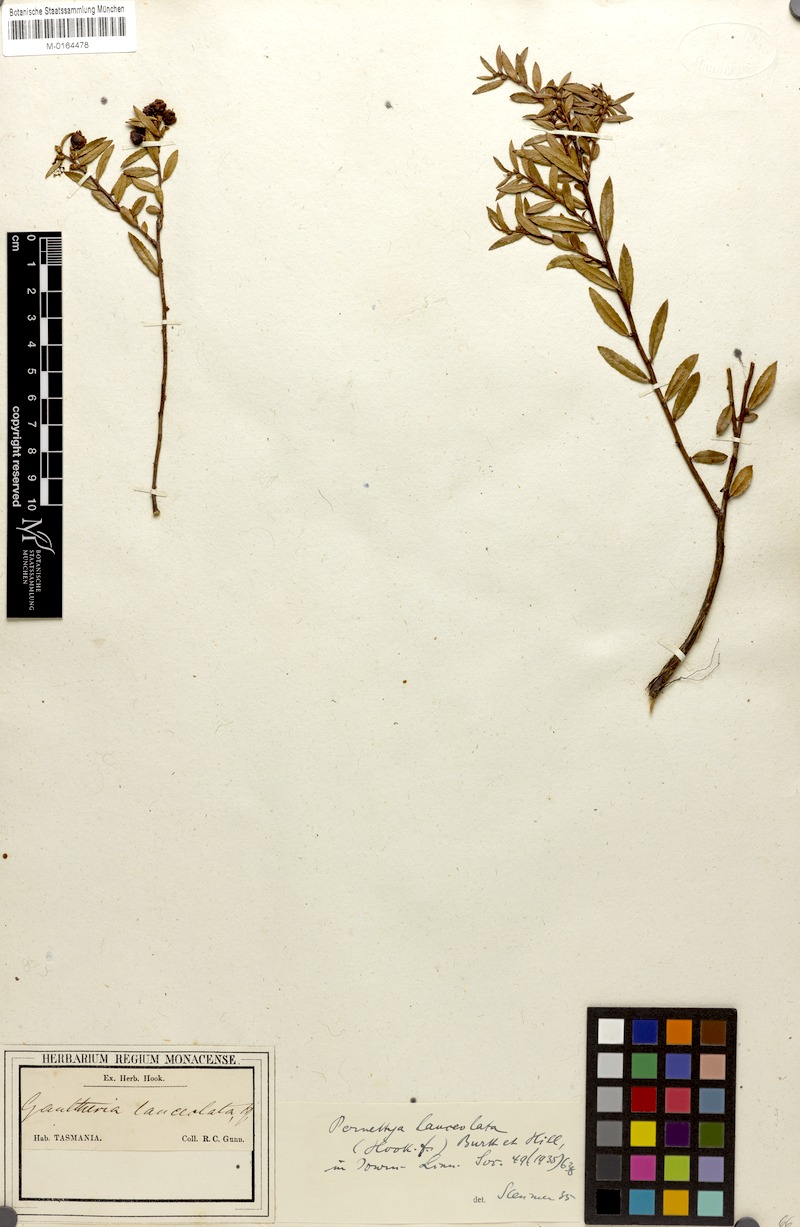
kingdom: Plantae
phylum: Tracheophyta
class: Magnoliopsida
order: Ericales
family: Ericaceae
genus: Gaultheria
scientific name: Gaultheria lanceolata
